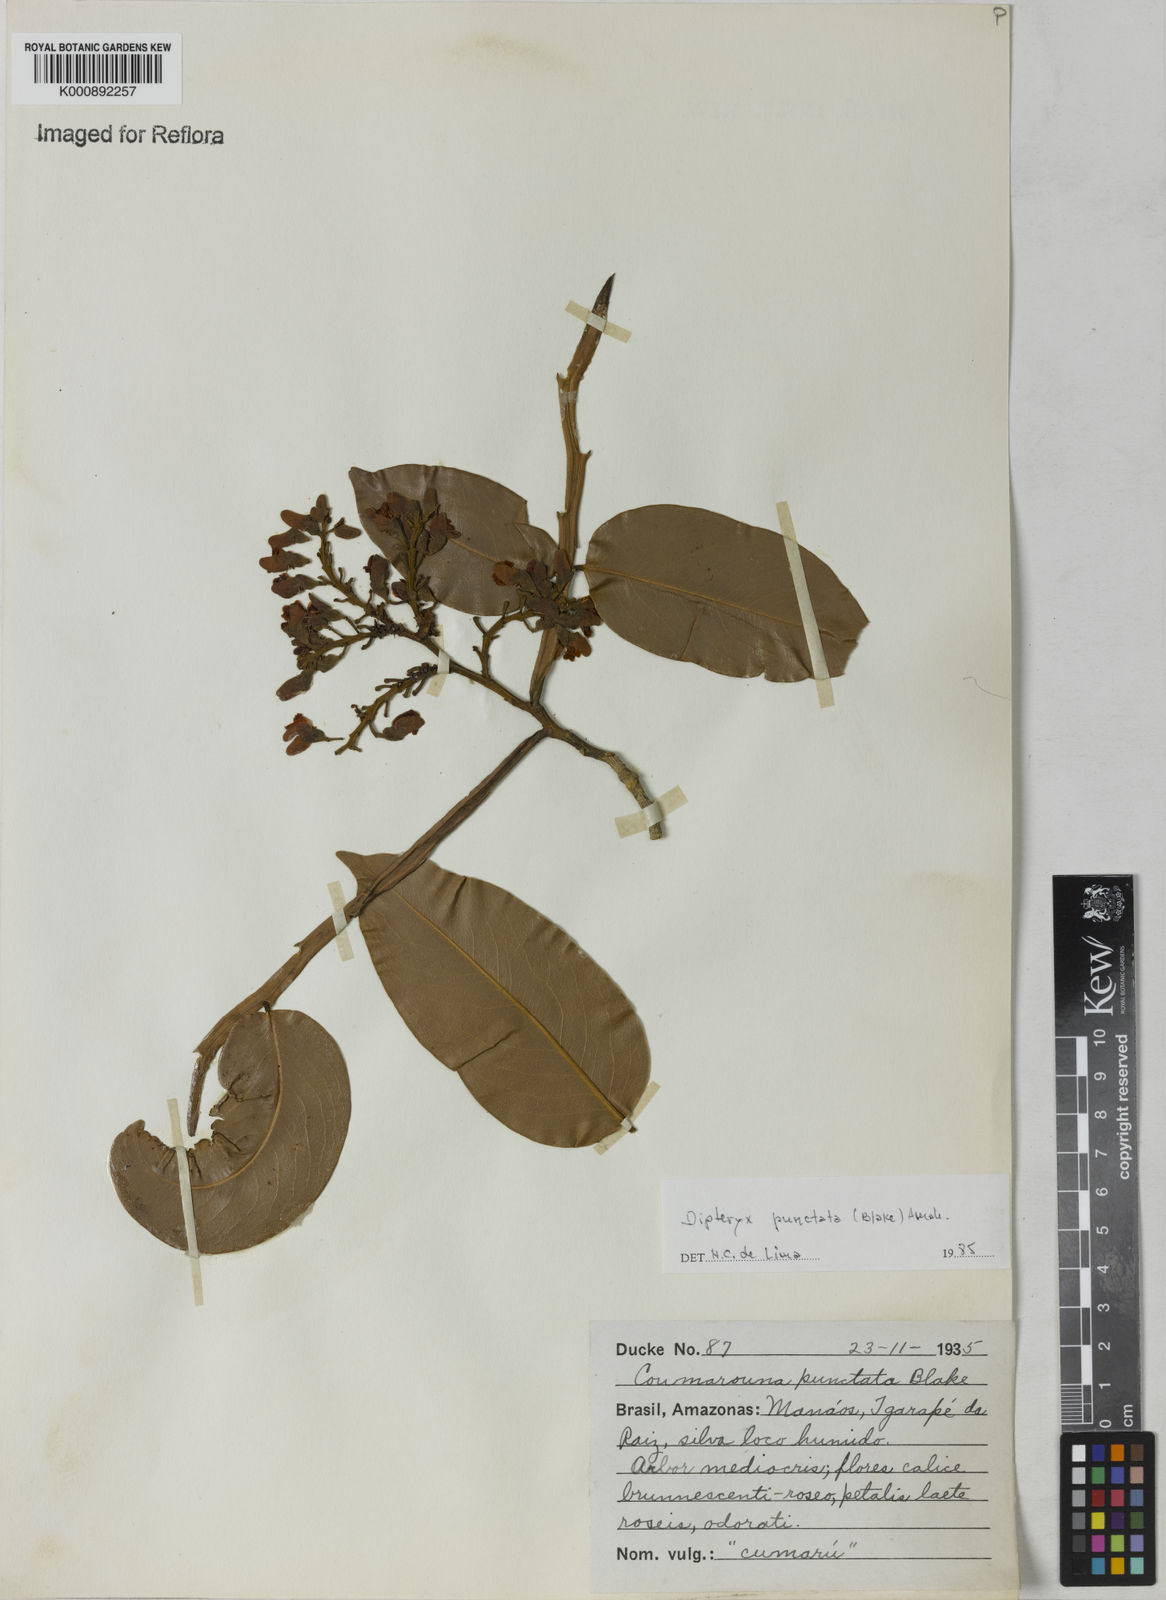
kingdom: Plantae
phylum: Tracheophyta
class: Magnoliopsida
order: Fabales
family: Fabaceae
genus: Dipteryx
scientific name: Dipteryx punctata
